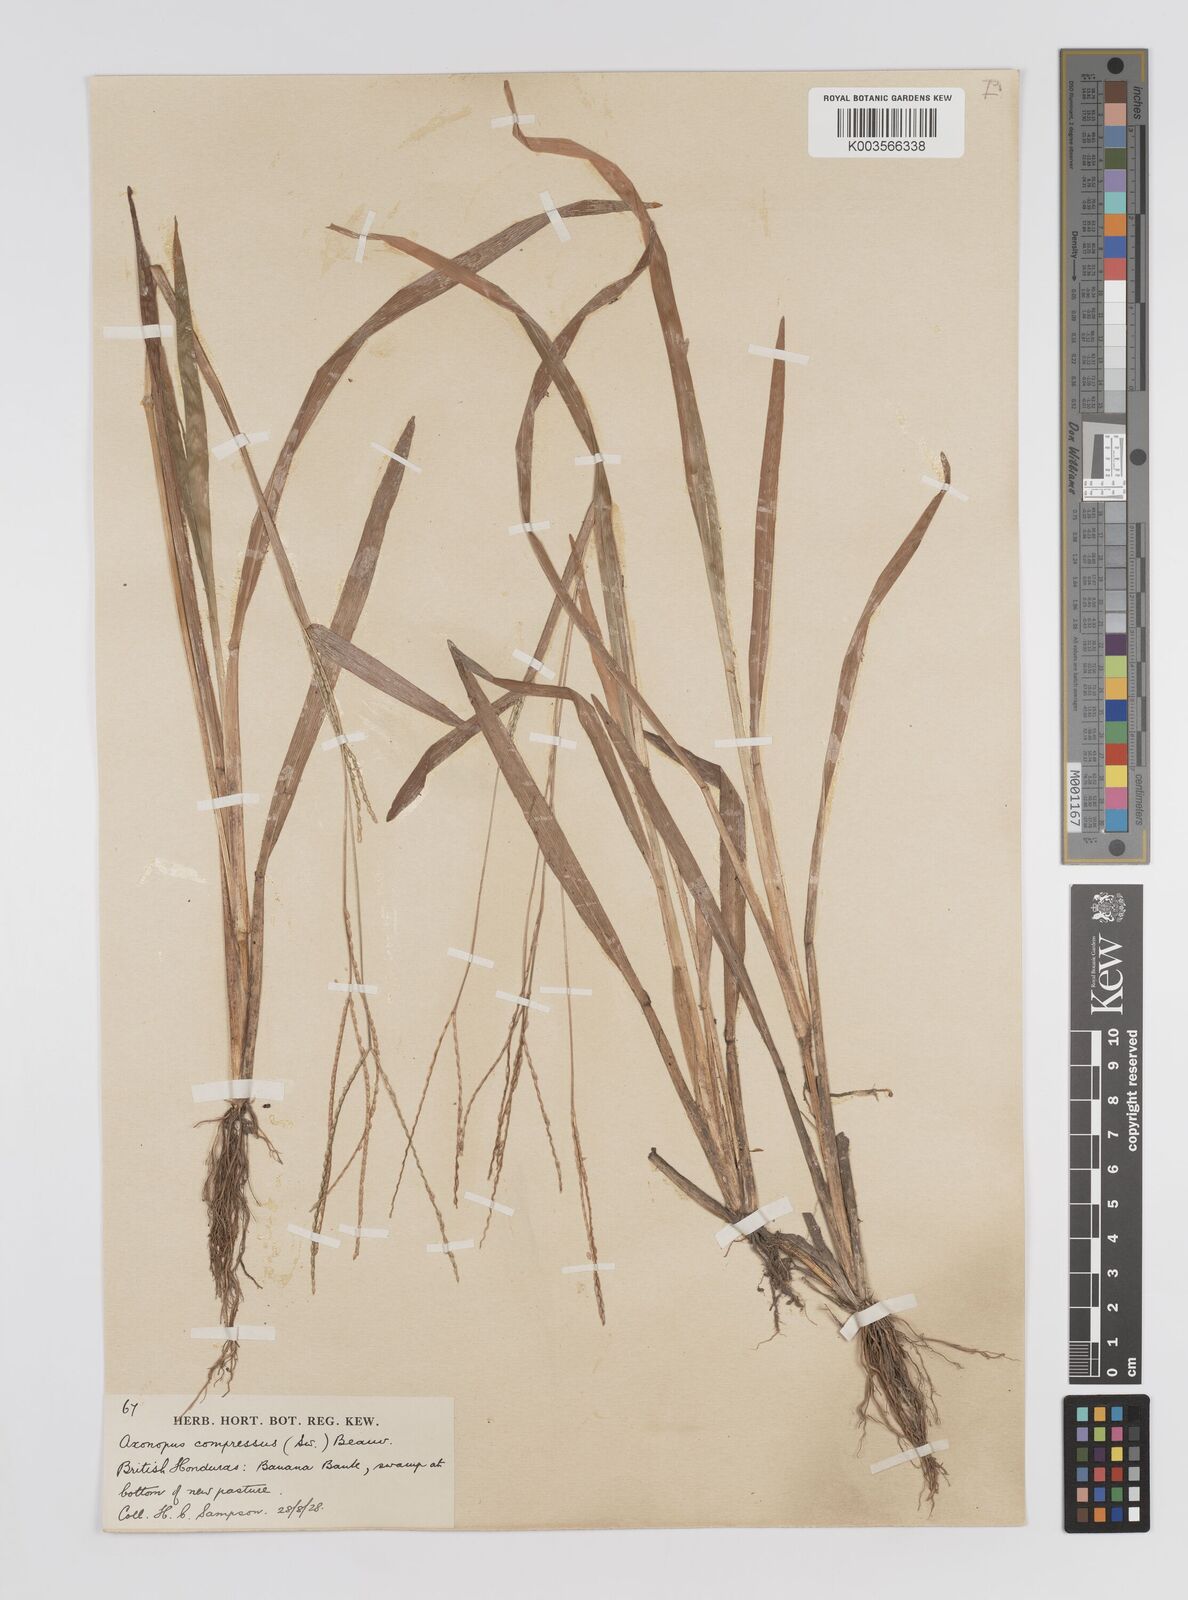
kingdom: Plantae
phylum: Tracheophyta
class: Liliopsida
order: Poales
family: Poaceae
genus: Axonopus
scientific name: Axonopus compressus
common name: American carpet grass
